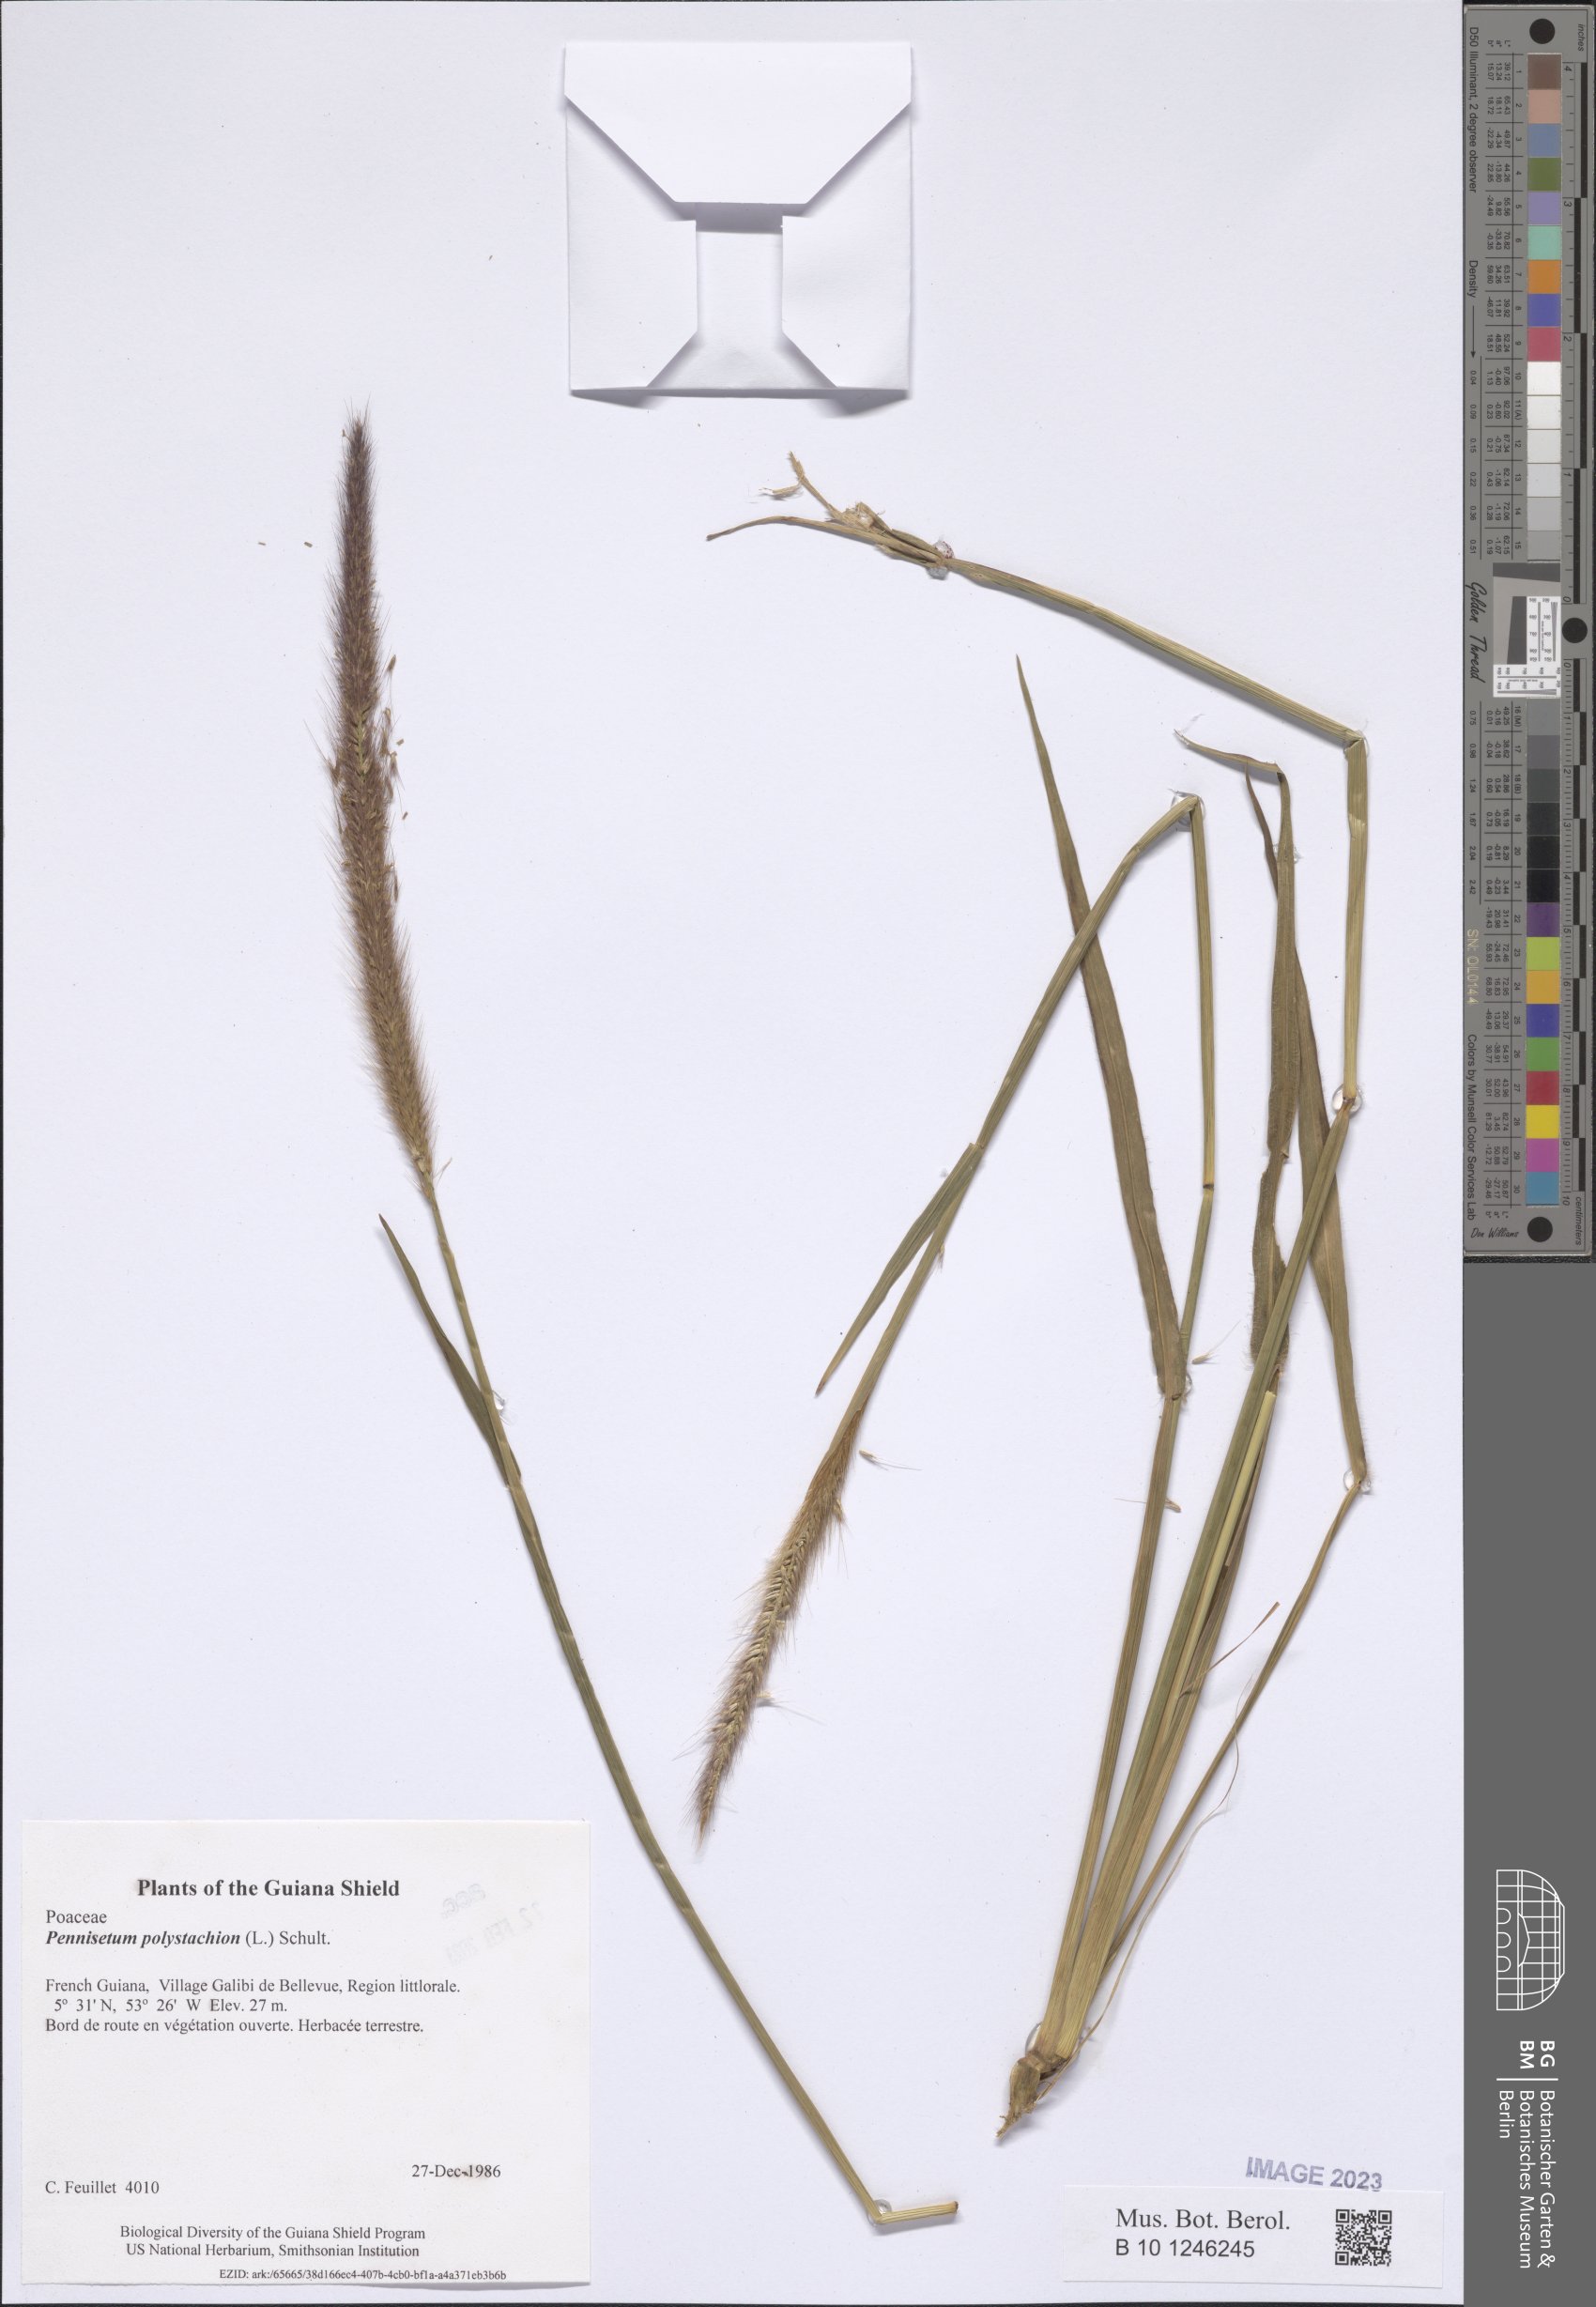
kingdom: Plantae
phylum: Tracheophyta
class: Liliopsida
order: Poales
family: Poaceae
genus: Setaria
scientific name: Setaria parviflora
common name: Knotroot bristle-grass
